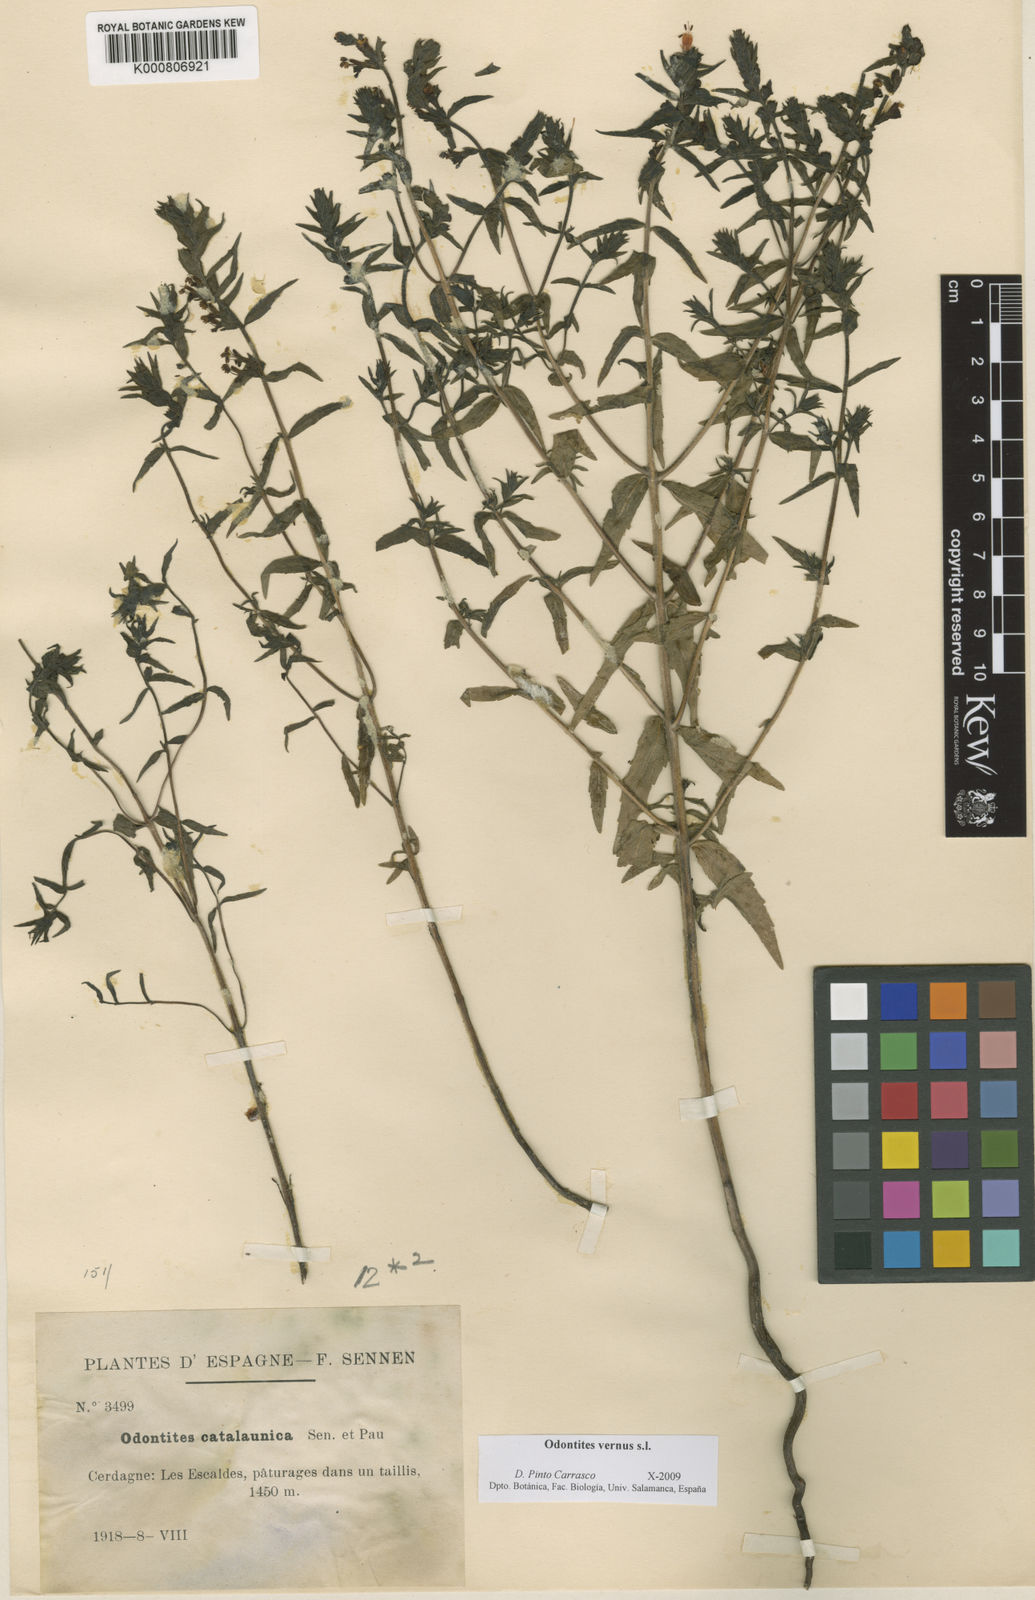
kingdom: Plantae
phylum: Tracheophyta
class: Magnoliopsida
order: Lamiales
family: Orobanchaceae
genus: Odontites
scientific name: Odontites vernus
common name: Red bartsia
